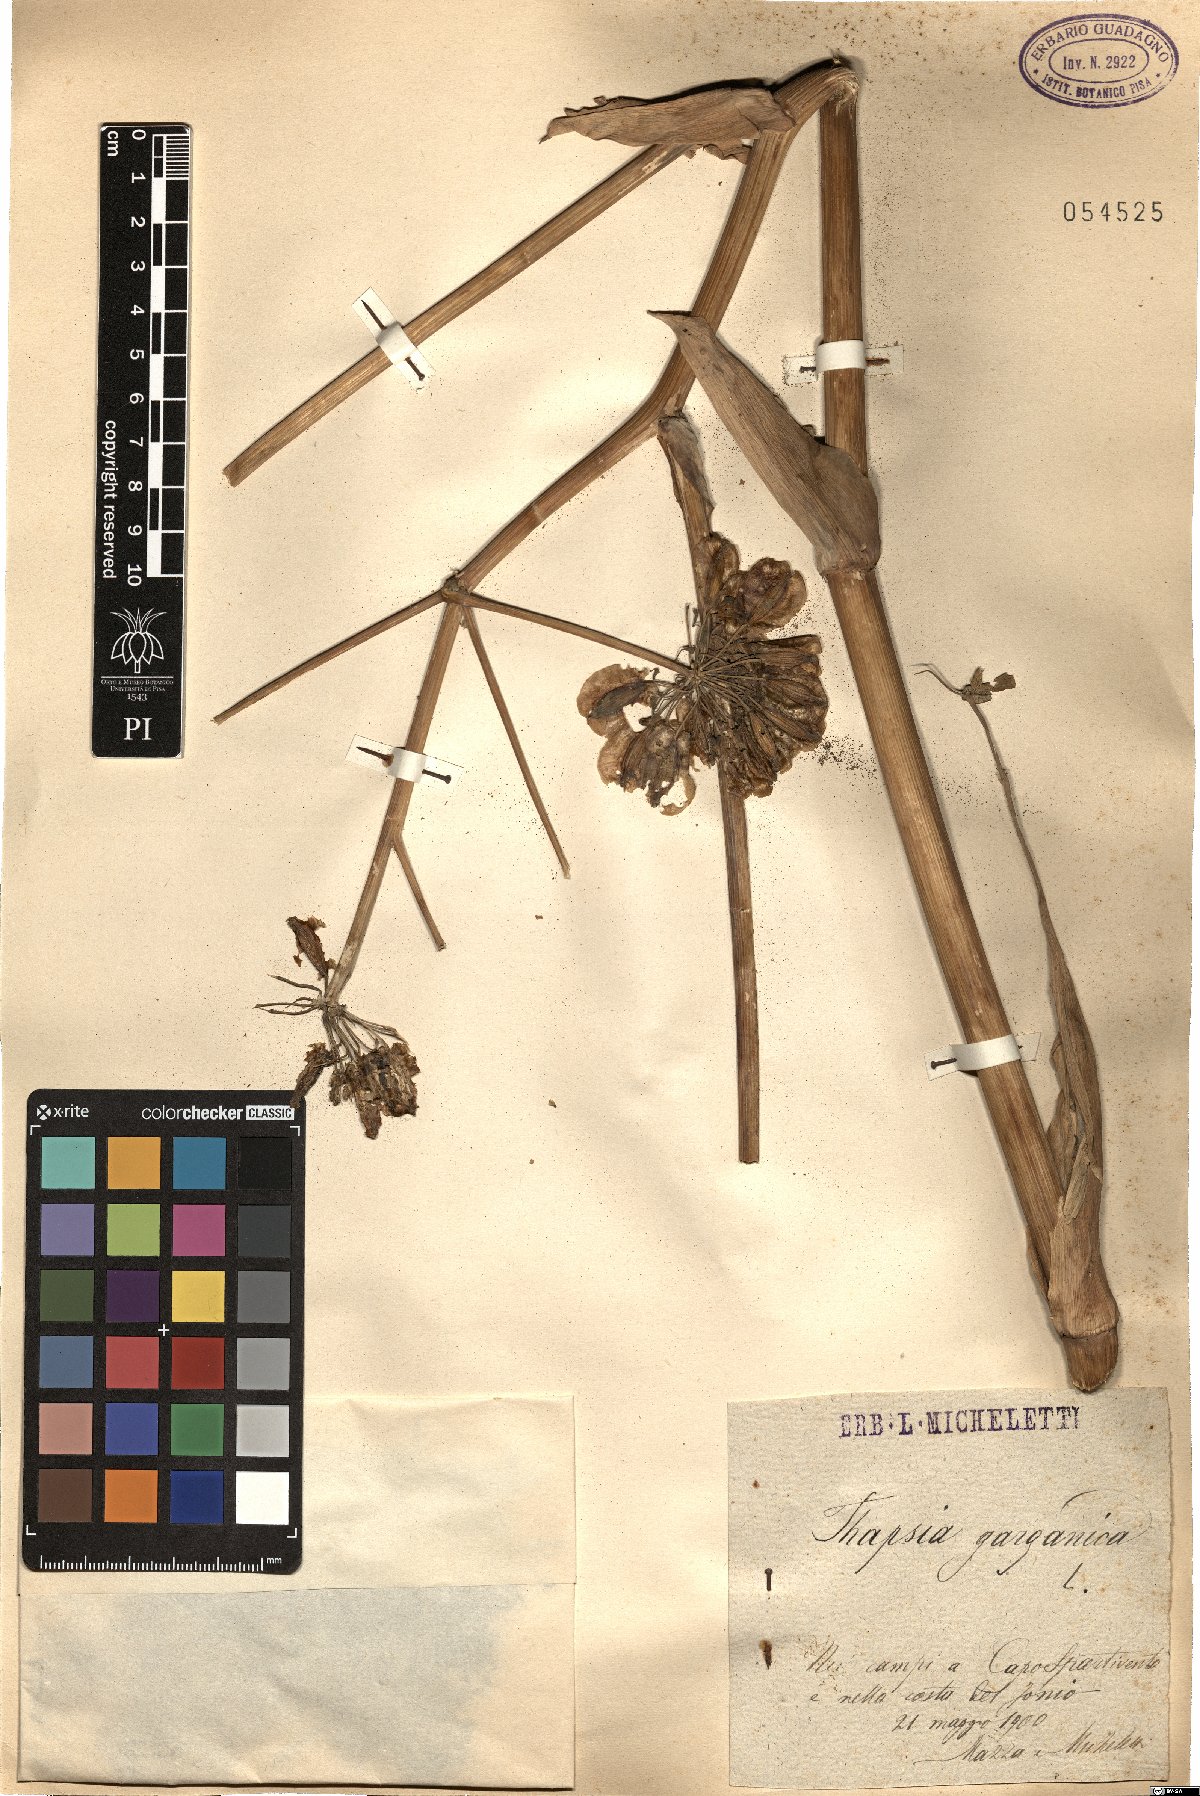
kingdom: Plantae
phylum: Tracheophyta
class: Magnoliopsida
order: Apiales
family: Apiaceae
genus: Thapsia
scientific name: Thapsia garganica
